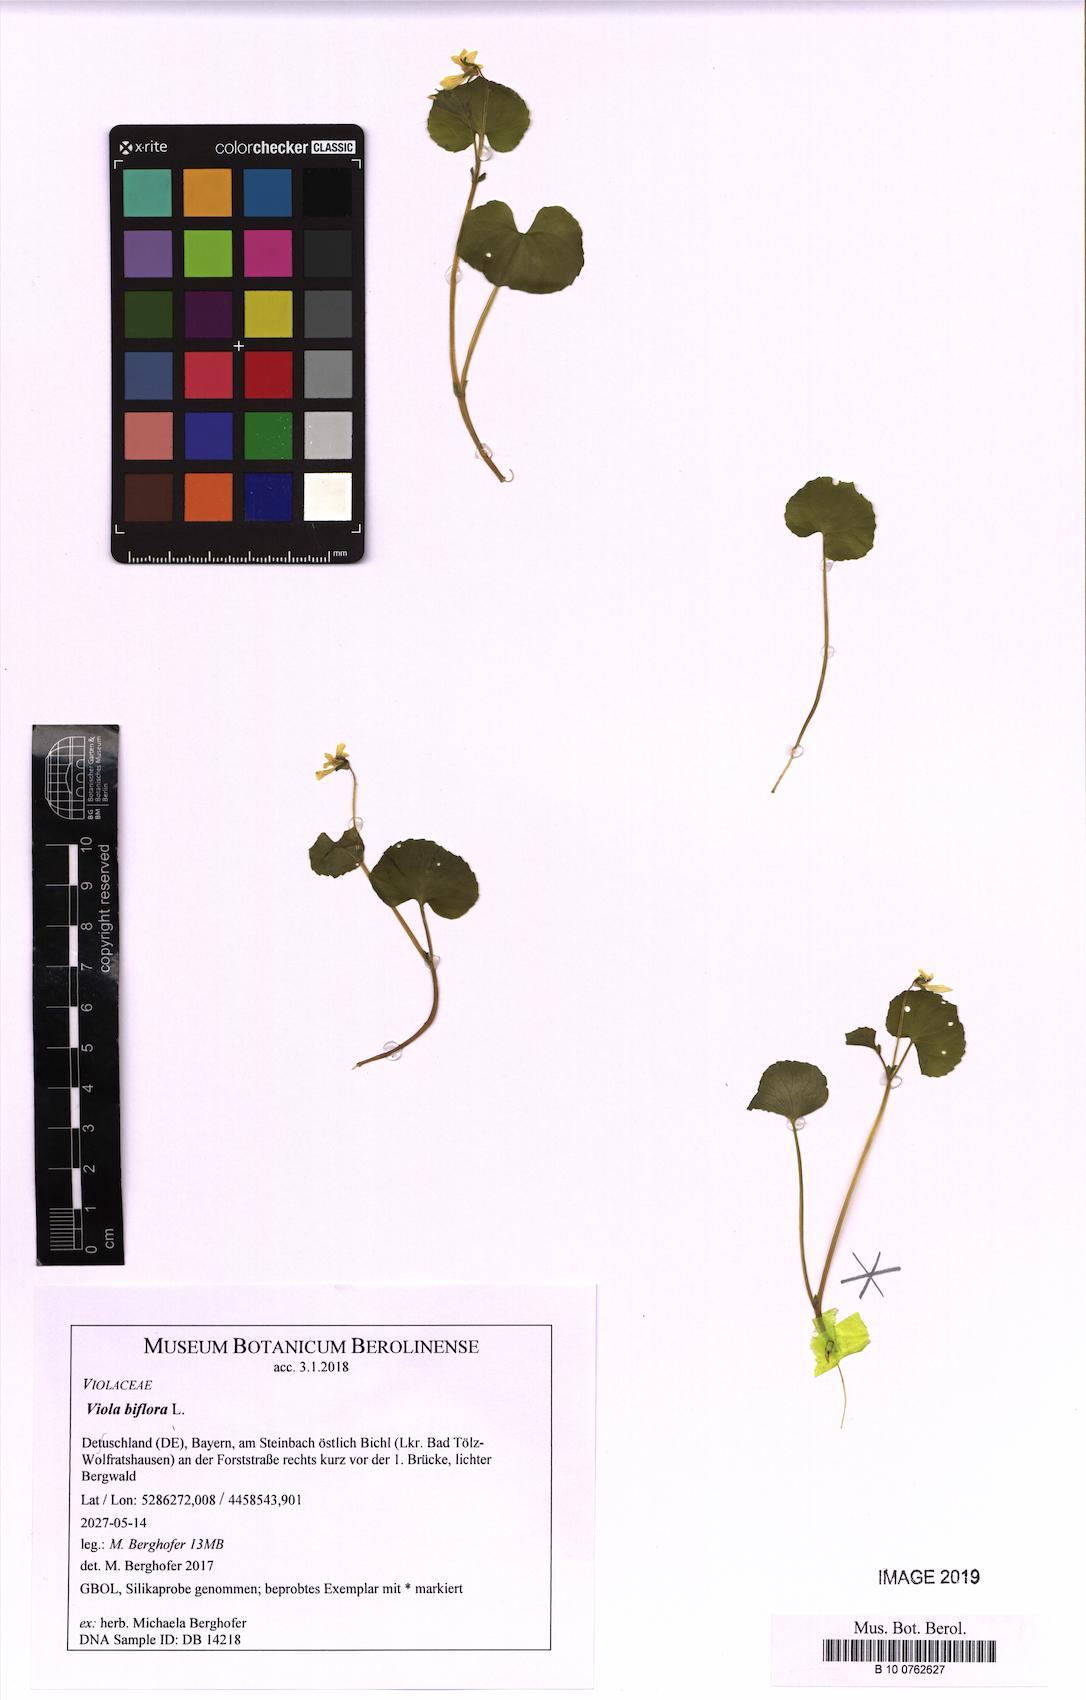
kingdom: Plantae
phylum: Tracheophyta
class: Magnoliopsida
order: Malpighiales
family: Violaceae
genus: Viola
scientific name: Viola biflora
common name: Alpine yellow violet
